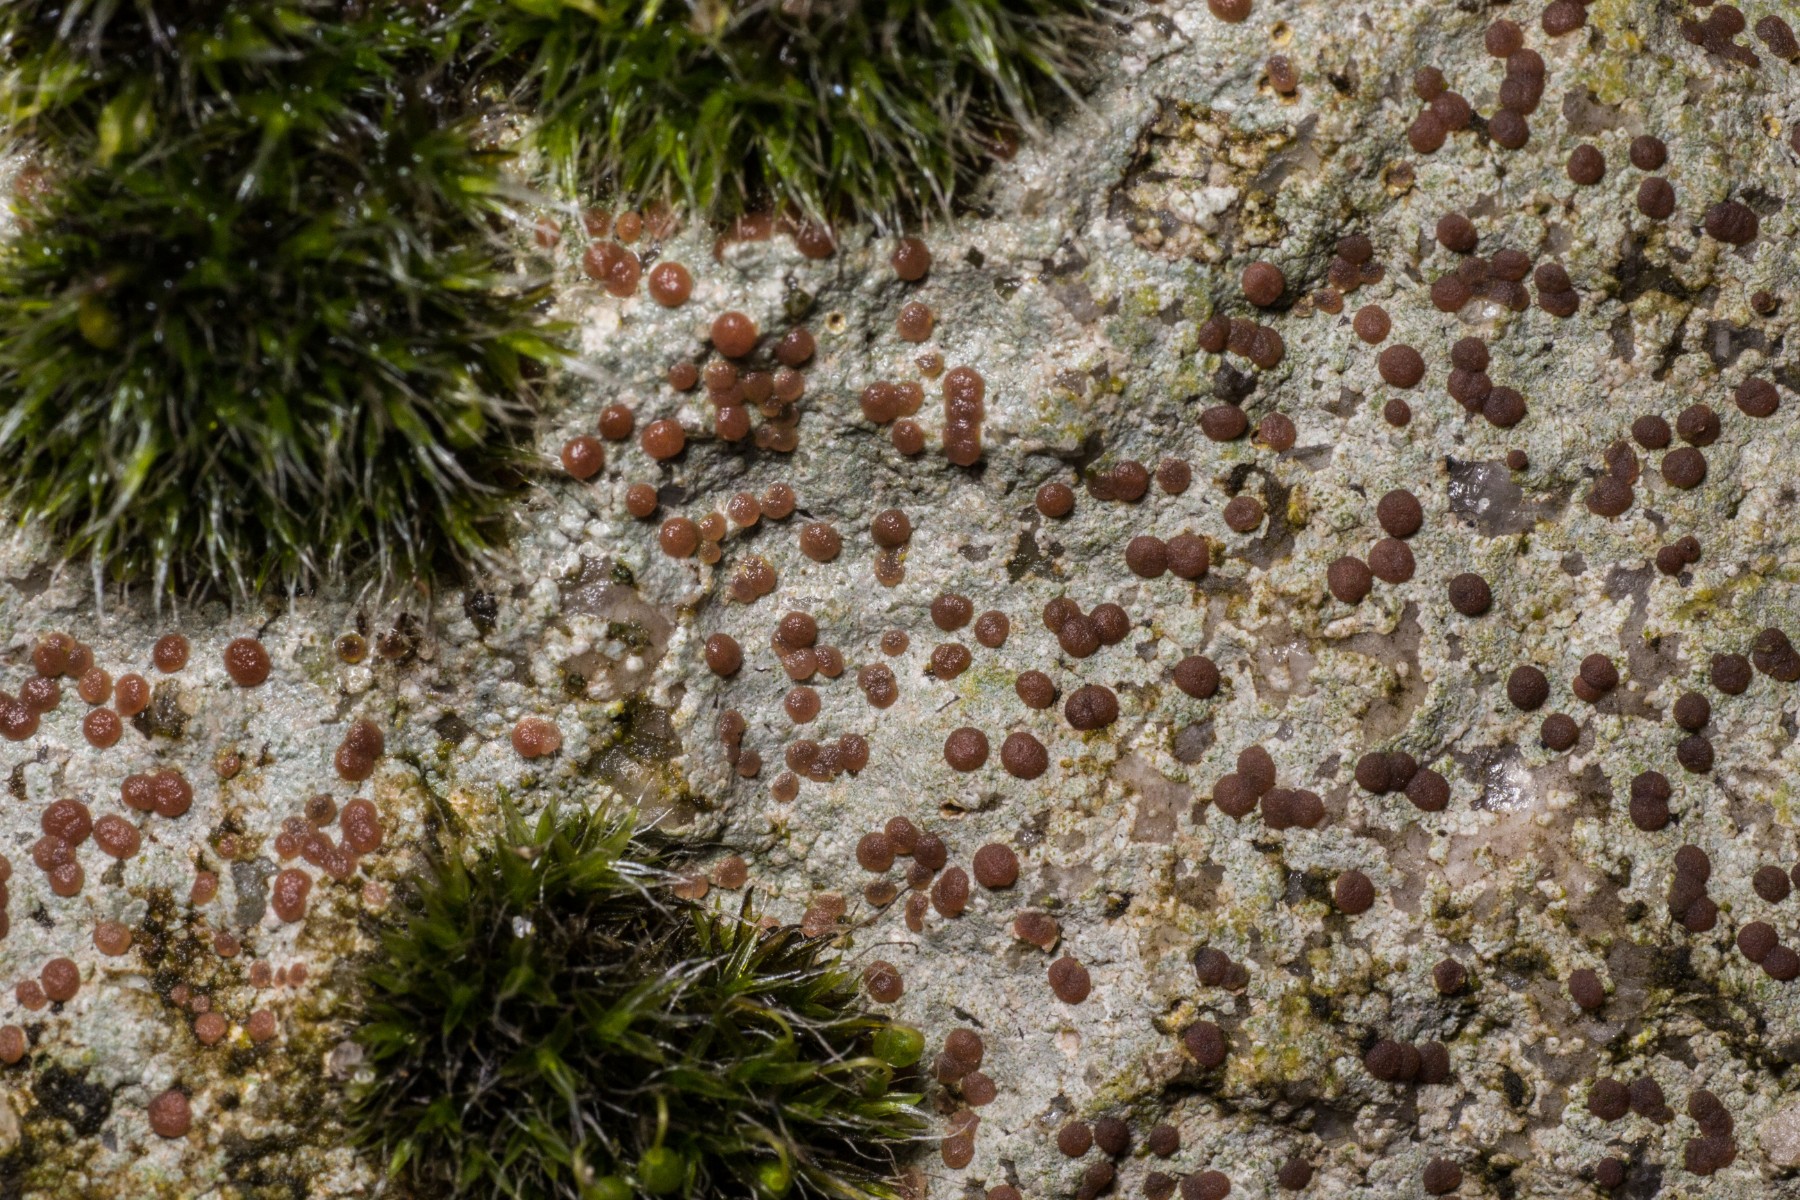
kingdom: Fungi
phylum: Ascomycota
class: Lecanoromycetes
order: Baeomycetales
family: Trapeliaceae
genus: Trapelia
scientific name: Trapelia coarctata
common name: hvidrandet brunskivelav
